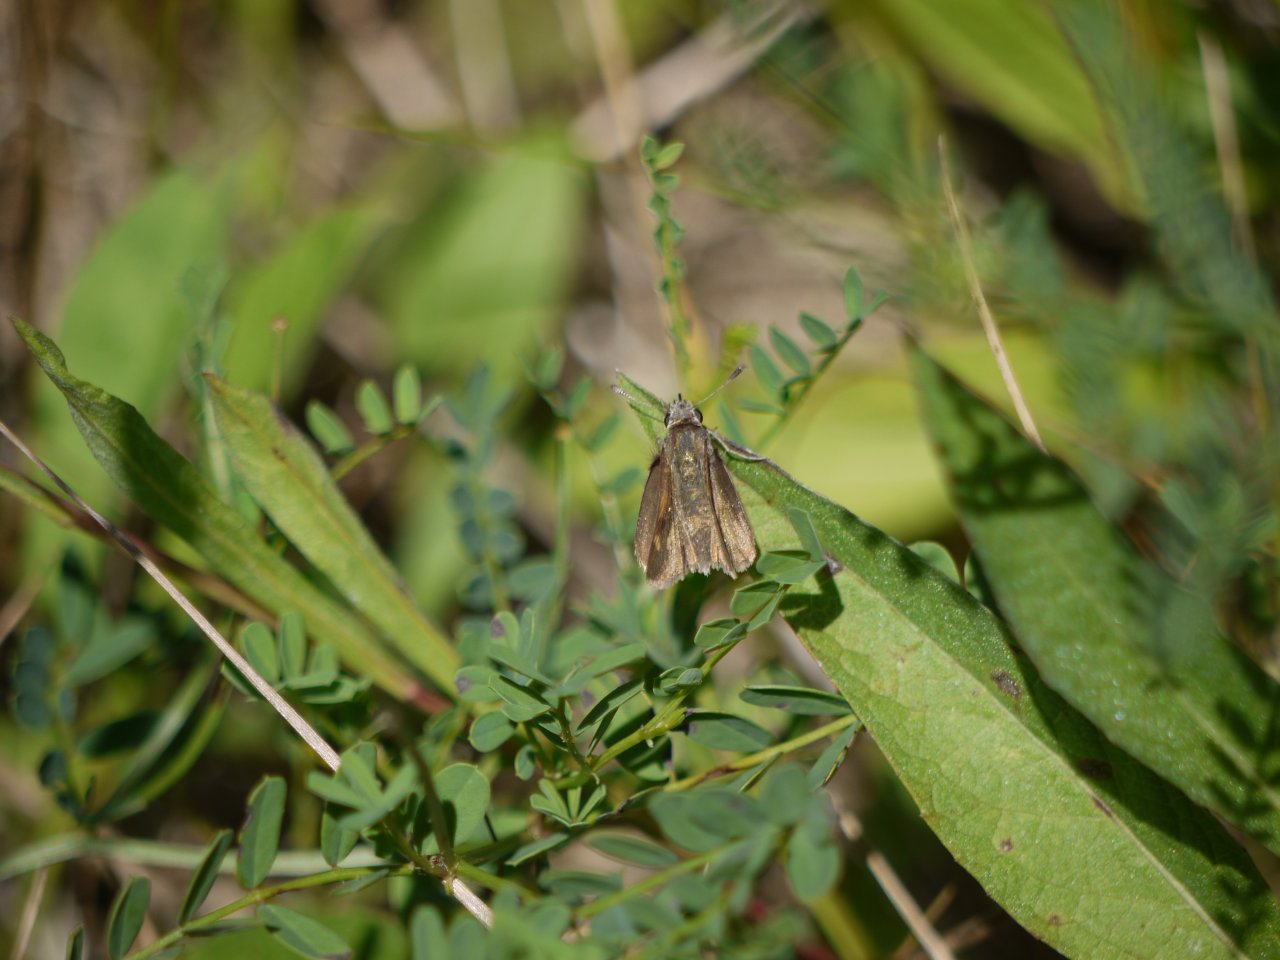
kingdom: Animalia
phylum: Arthropoda
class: Insecta
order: Lepidoptera
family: Hesperiidae
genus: Polites
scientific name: Polites
